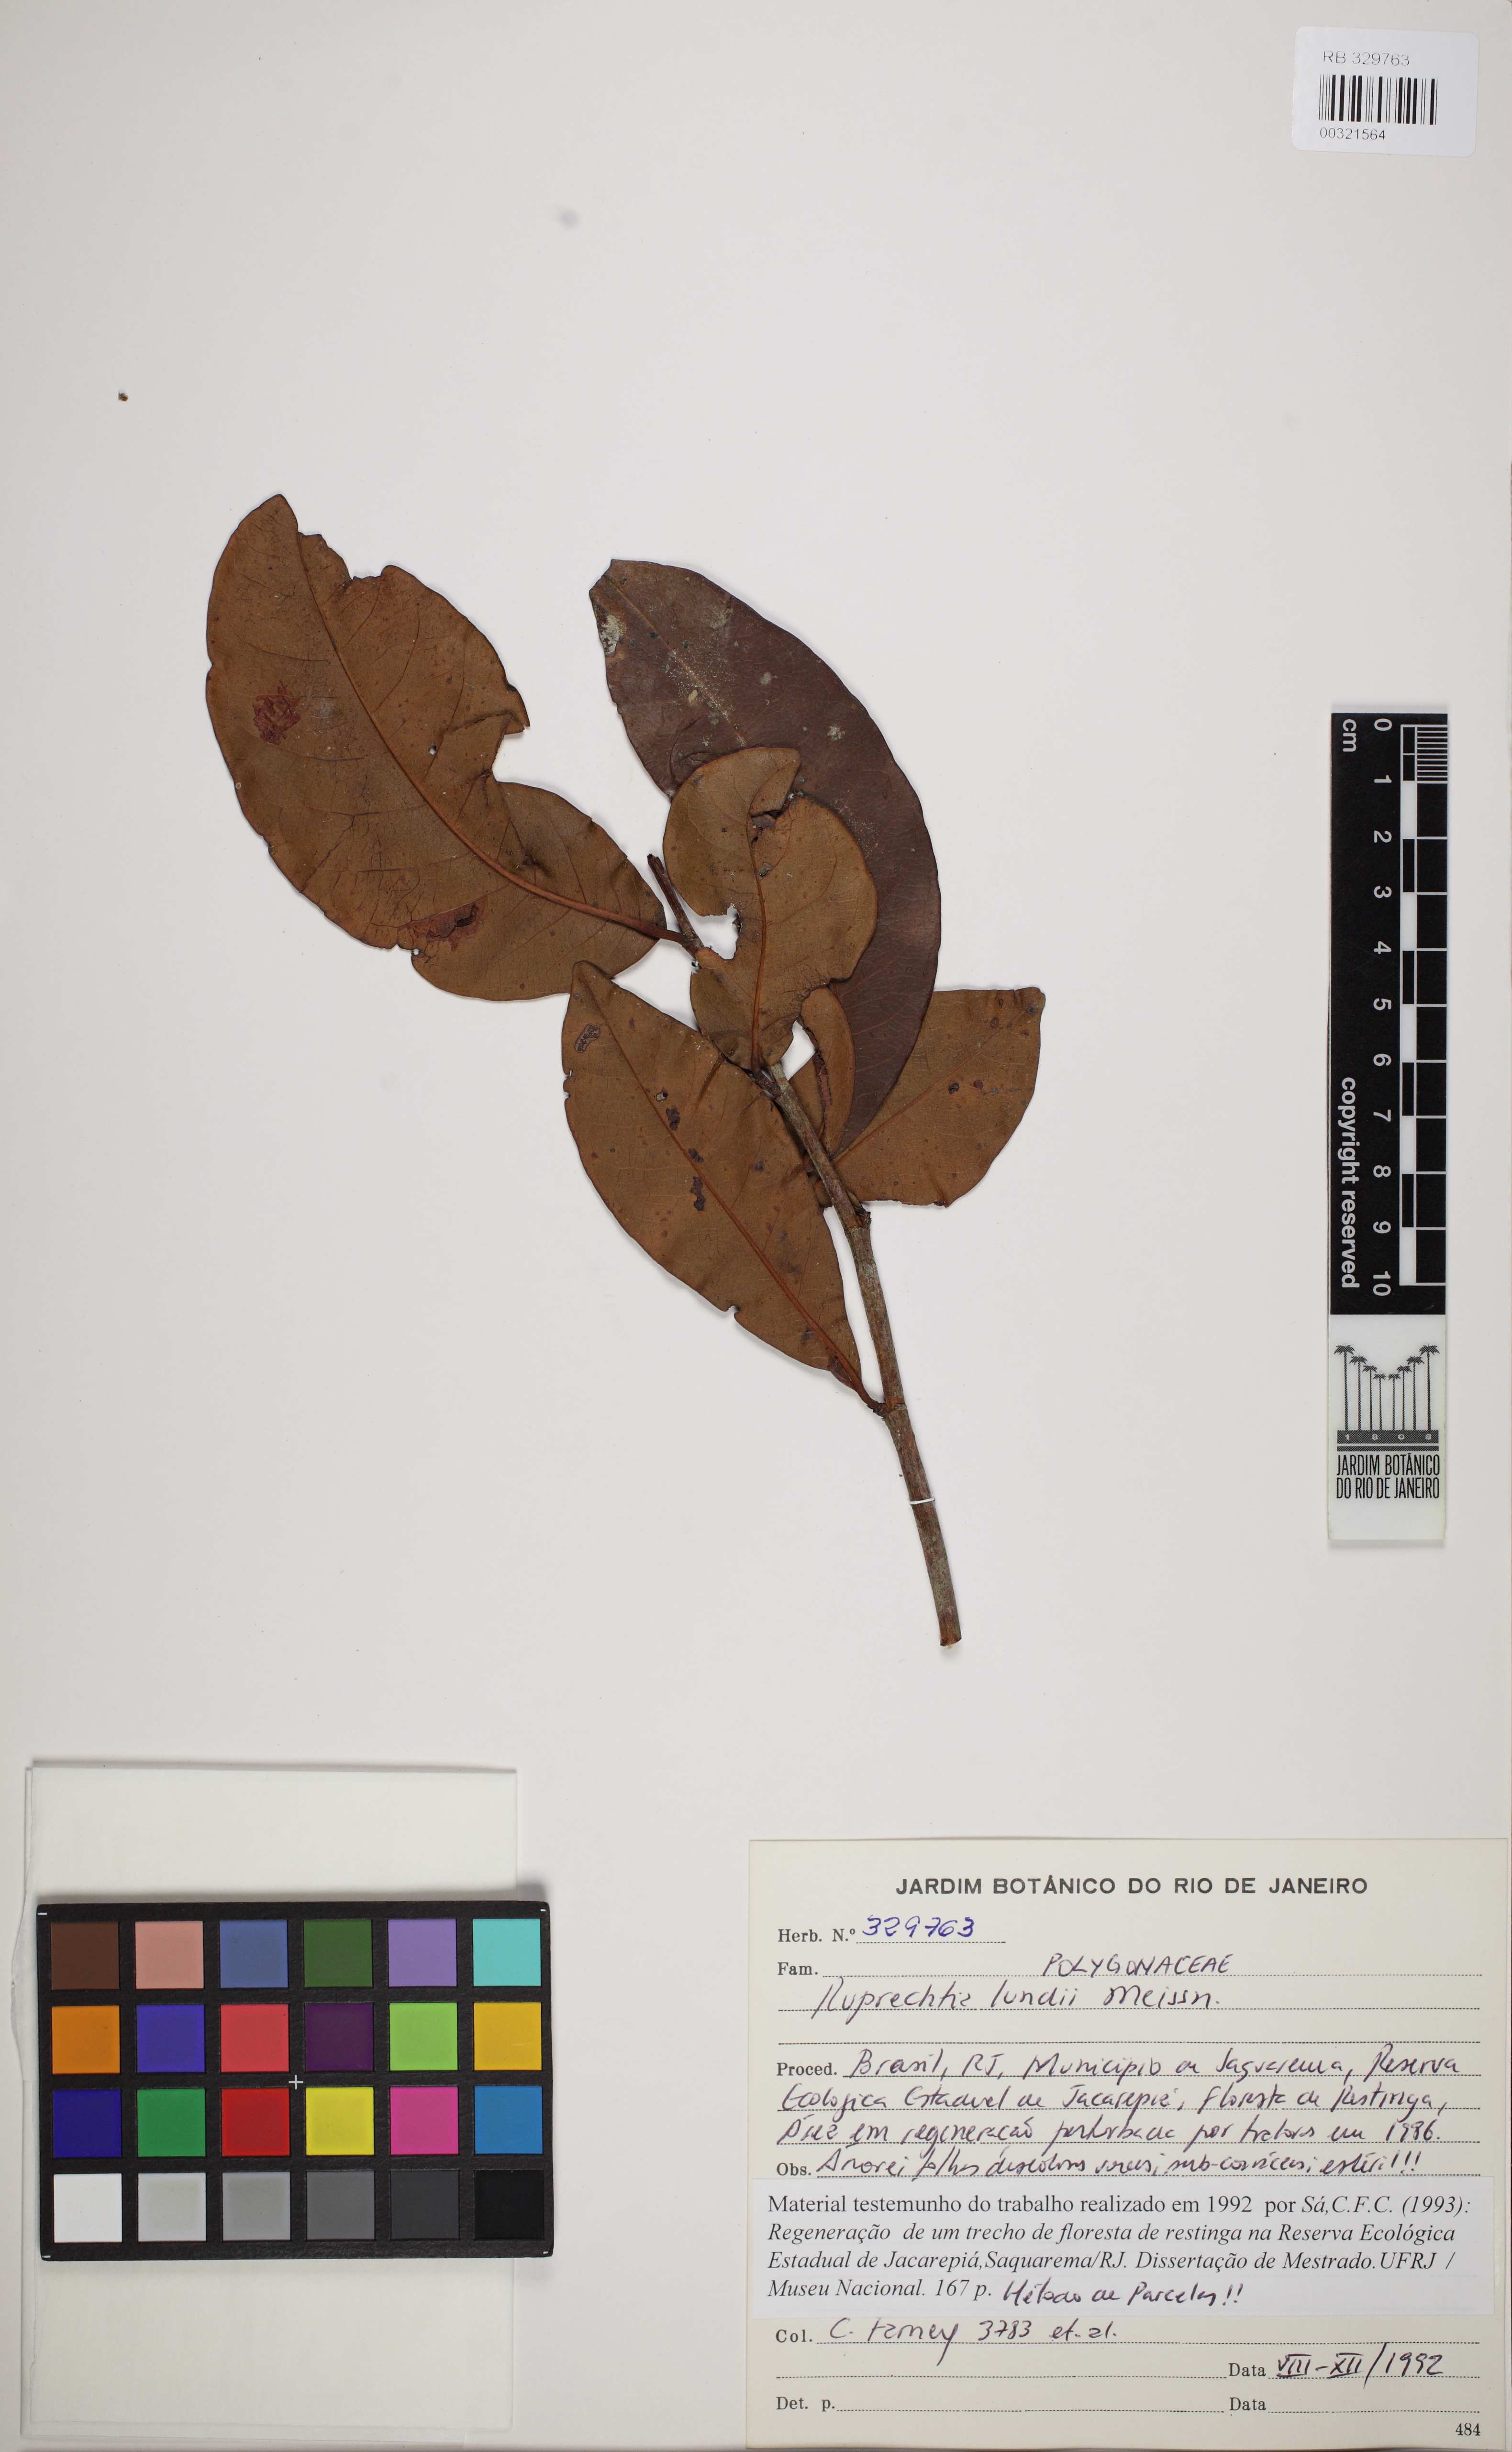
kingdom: Plantae
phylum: Tracheophyta
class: Magnoliopsida
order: Caryophyllales
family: Polygonaceae
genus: Ruprechtia
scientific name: Ruprechtia lundii
